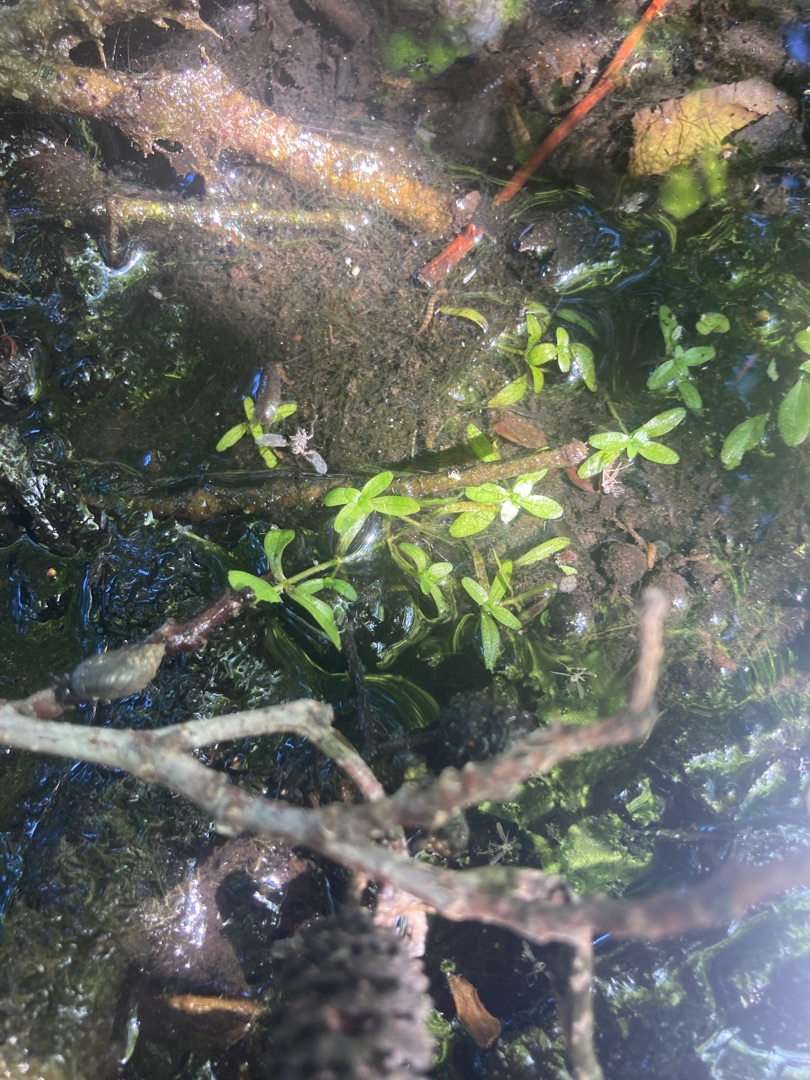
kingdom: Plantae
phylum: Tracheophyta
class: Magnoliopsida
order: Lamiales
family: Plantaginaceae
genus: Callitriche
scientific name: Callitriche
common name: Vandstjerneslægten
